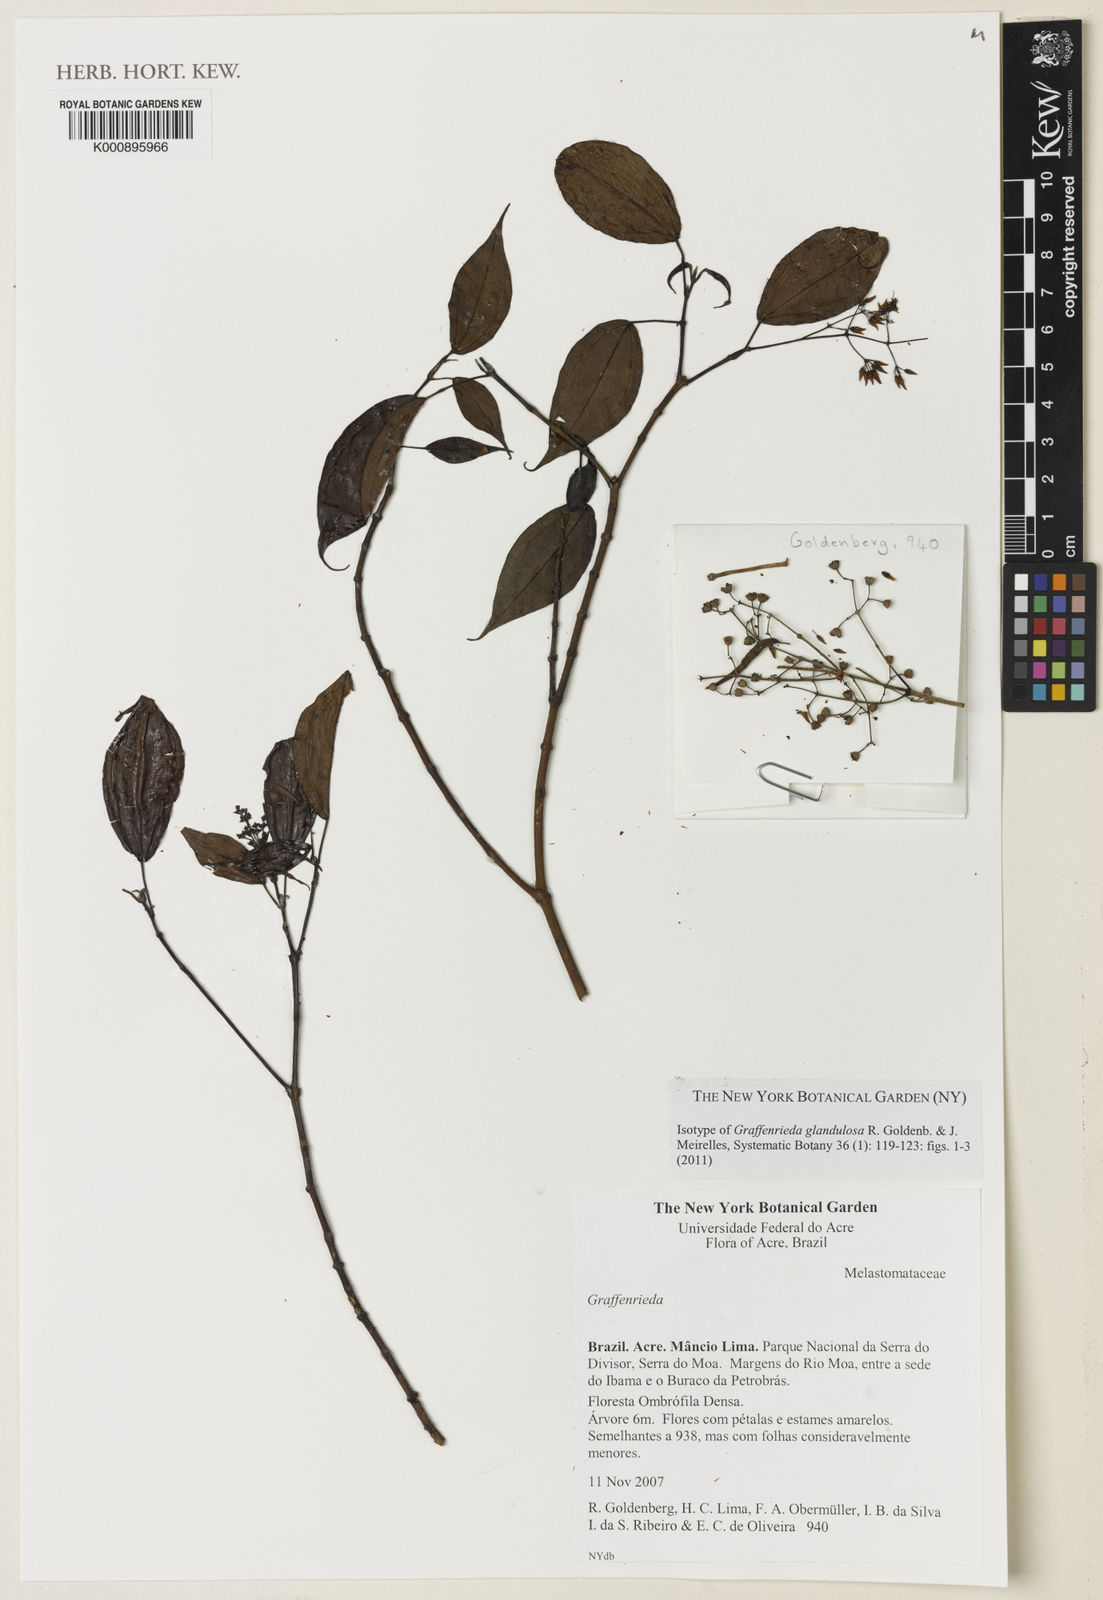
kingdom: Plantae
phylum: Tracheophyta
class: Magnoliopsida
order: Myrtales
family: Melastomataceae
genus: Graffenrieda
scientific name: Graffenrieda glandulosa
